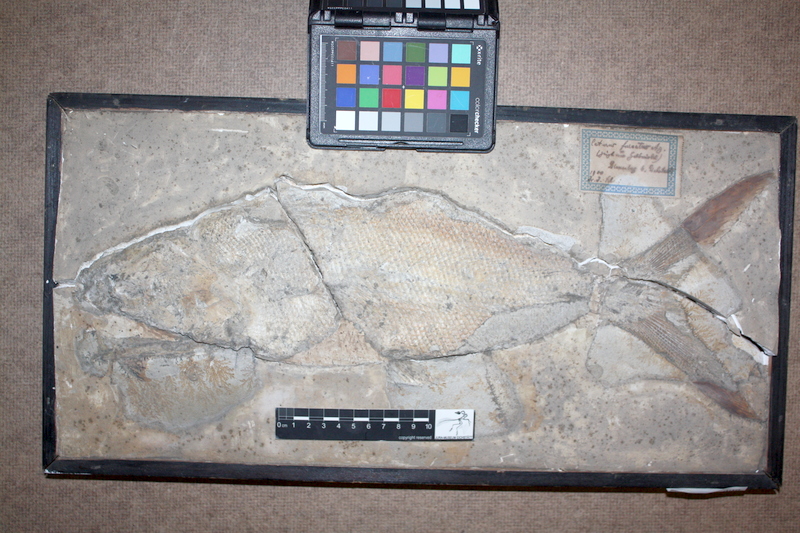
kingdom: Animalia
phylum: Chordata
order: Amiiformes
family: Caturidae
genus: Caturus
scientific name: Caturus furcatus
